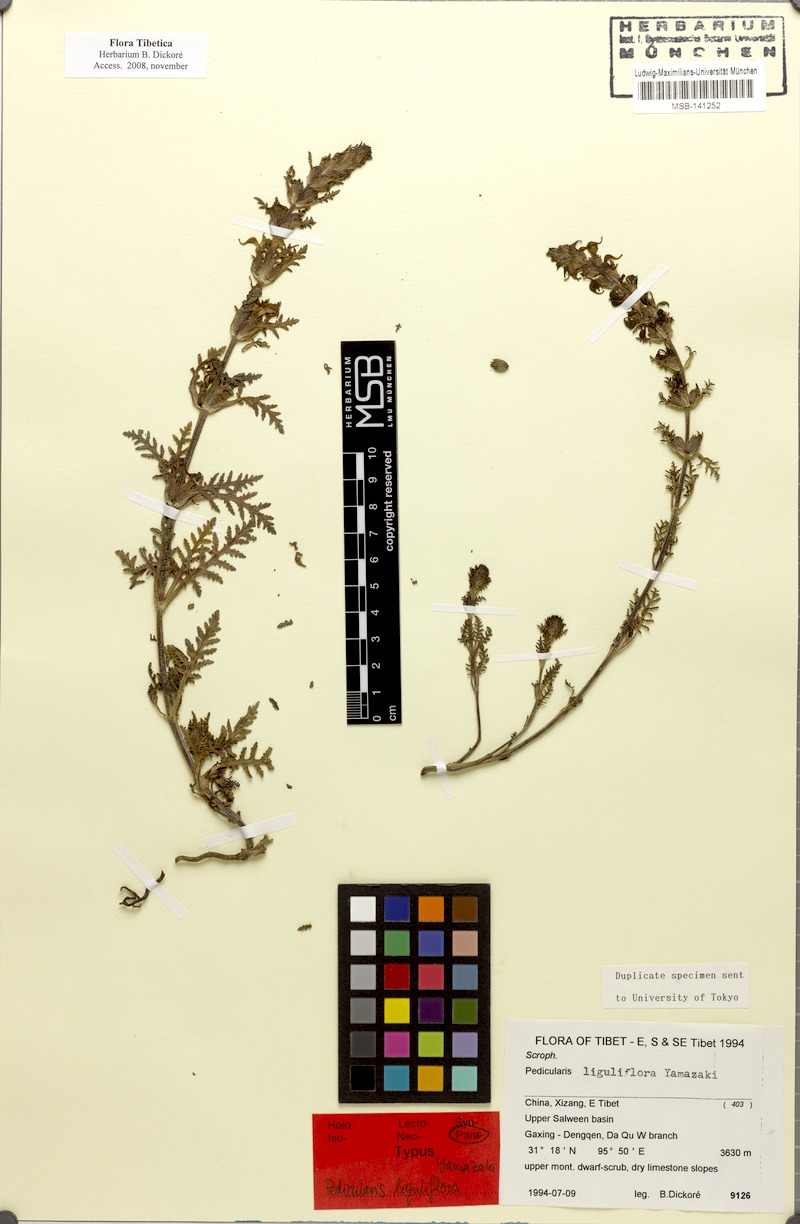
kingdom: Plantae
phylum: Tracheophyta
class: Magnoliopsida
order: Lamiales
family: Orobanchaceae
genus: Pedicularis
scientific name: Pedicularis liguliflora
